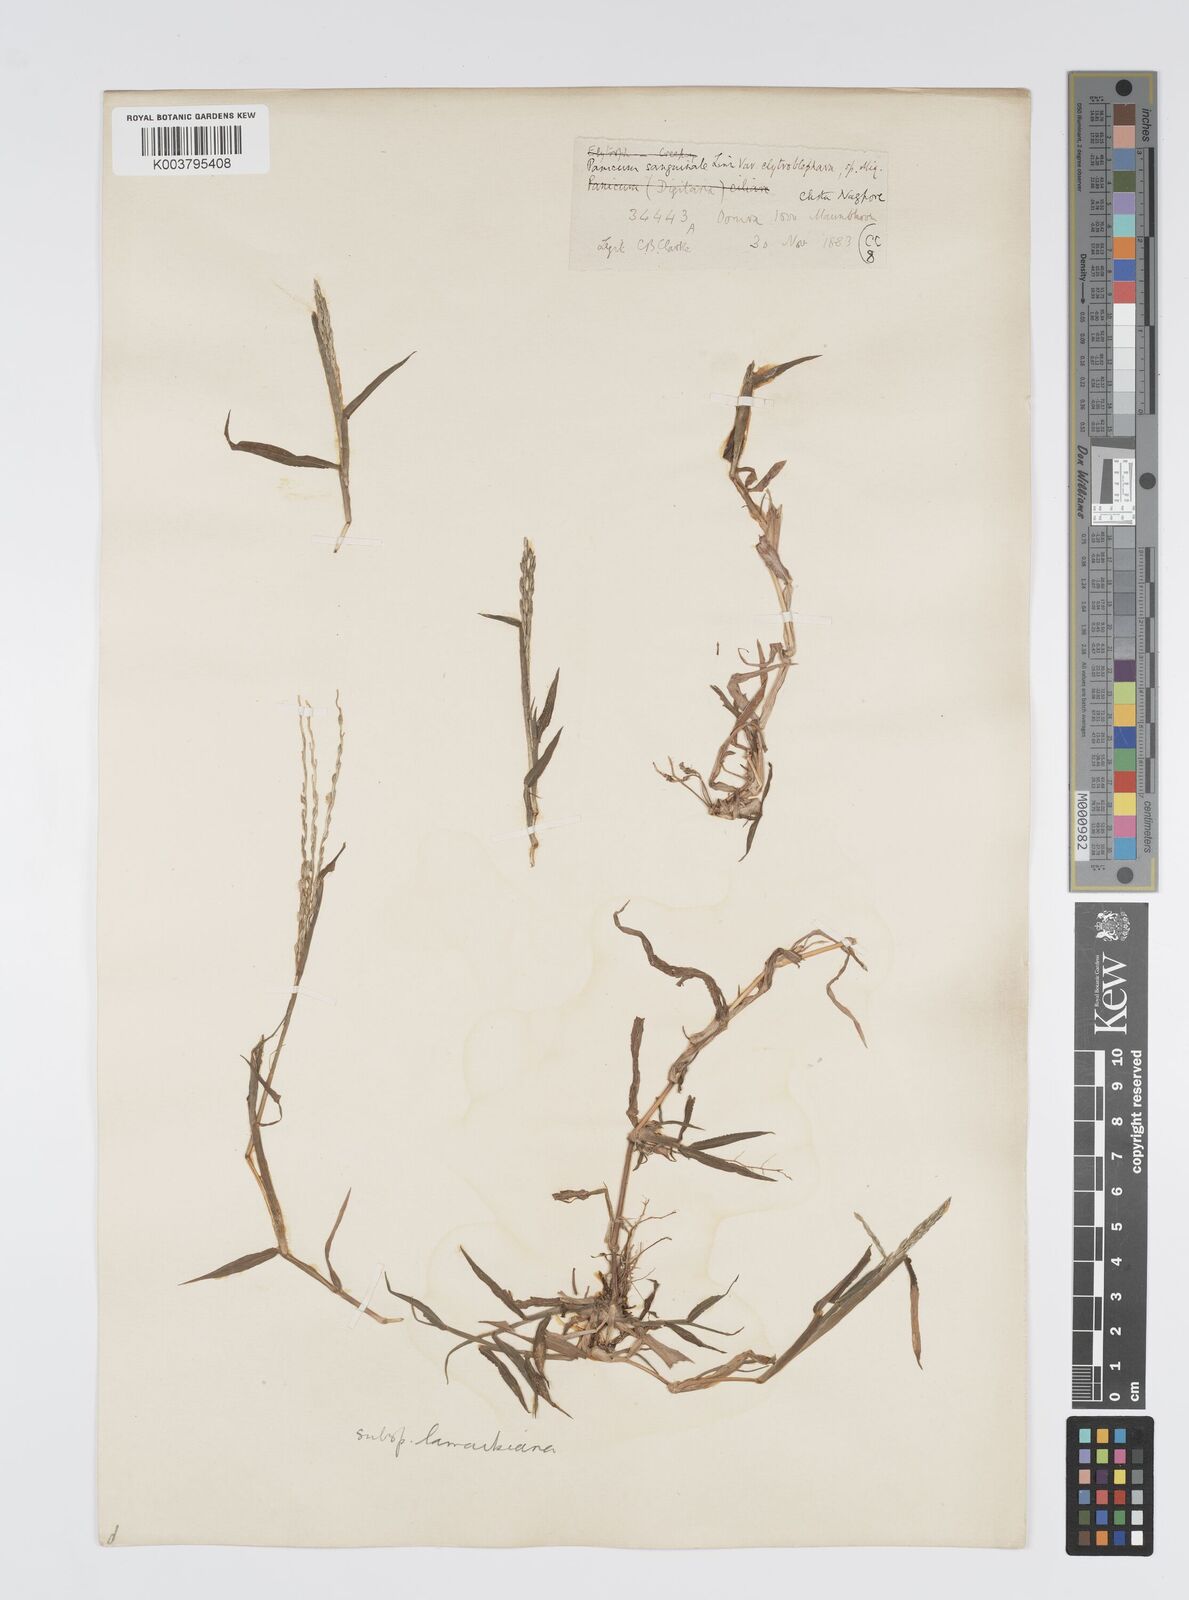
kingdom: Plantae
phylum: Tracheophyta
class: Liliopsida
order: Poales
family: Poaceae
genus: Digitaria
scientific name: Digitaria ciliaris
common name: Tropical finger-grass
